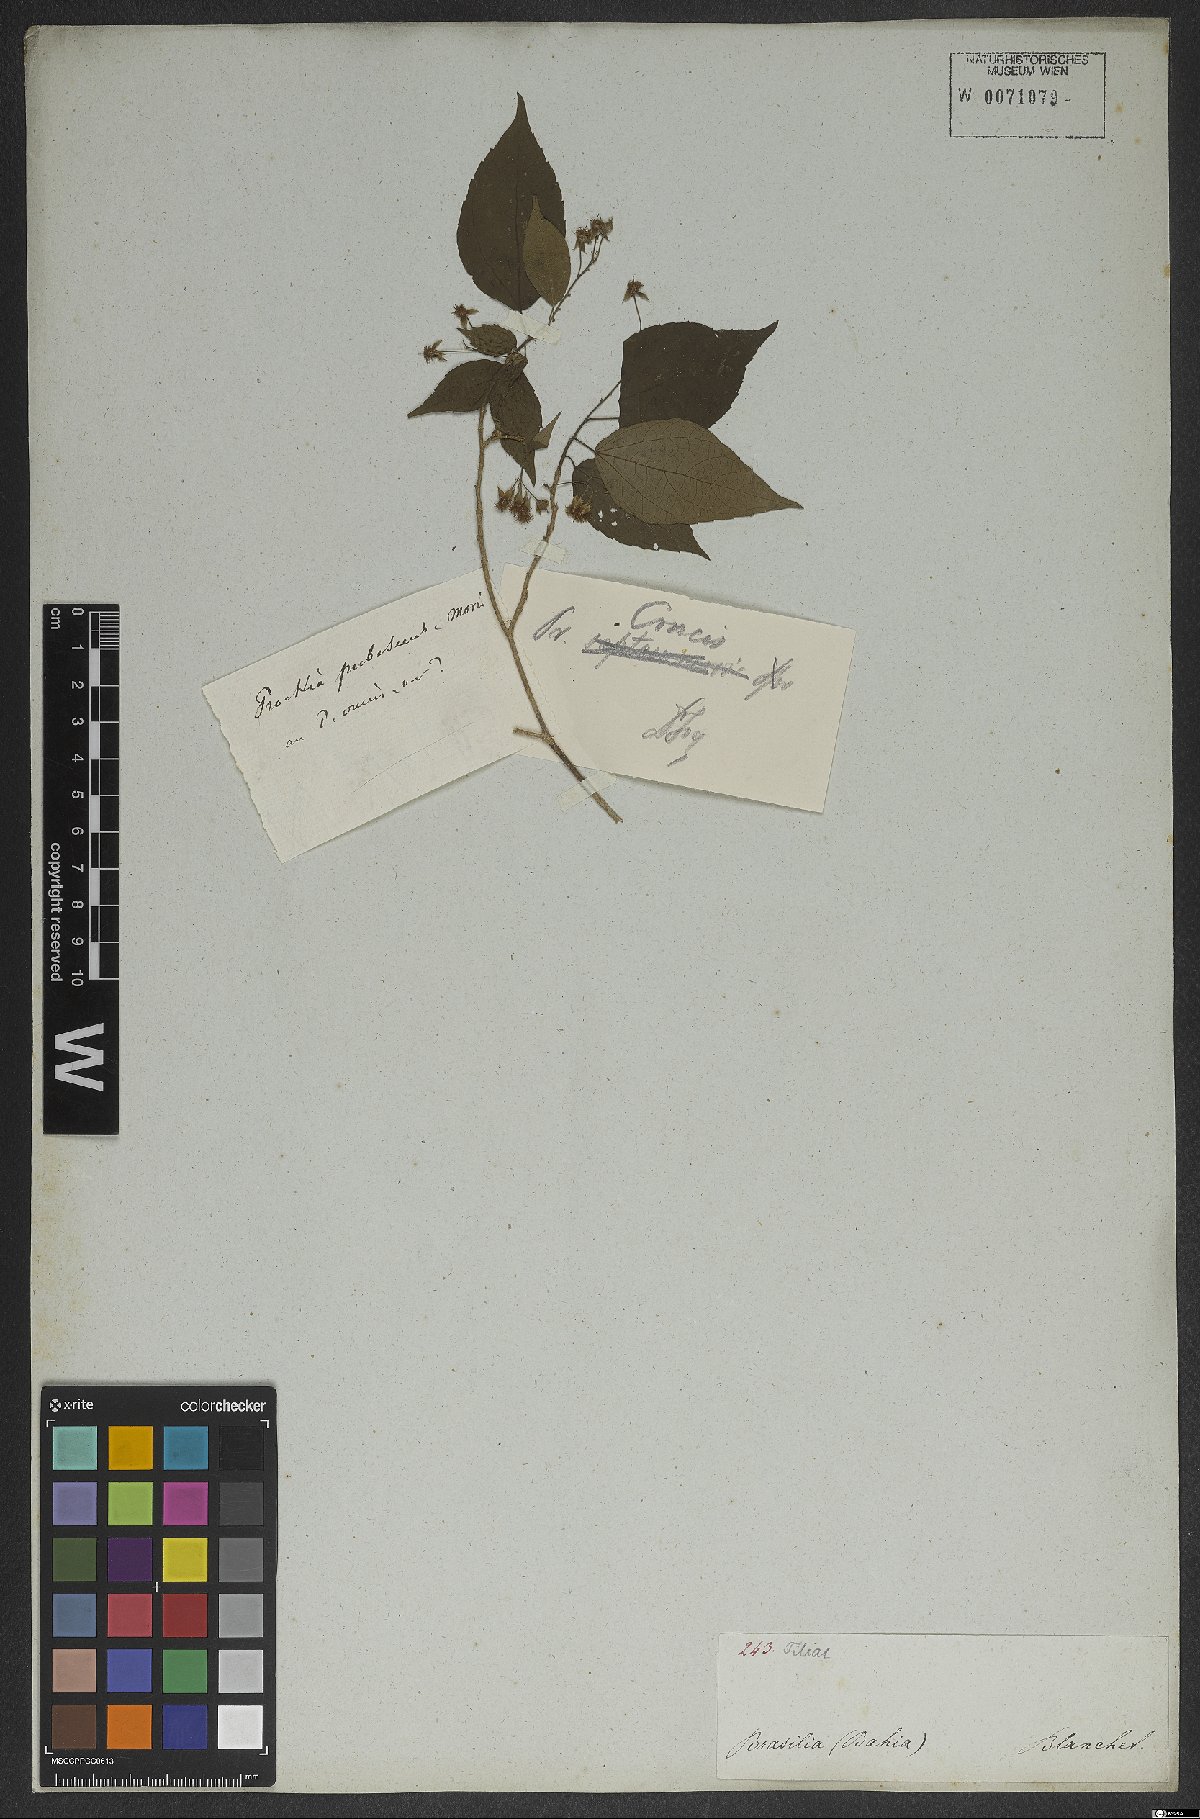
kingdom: Plantae
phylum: Tracheophyta
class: Magnoliopsida
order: Malpighiales
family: Salicaceae
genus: Prockia
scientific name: Prockia crucis
